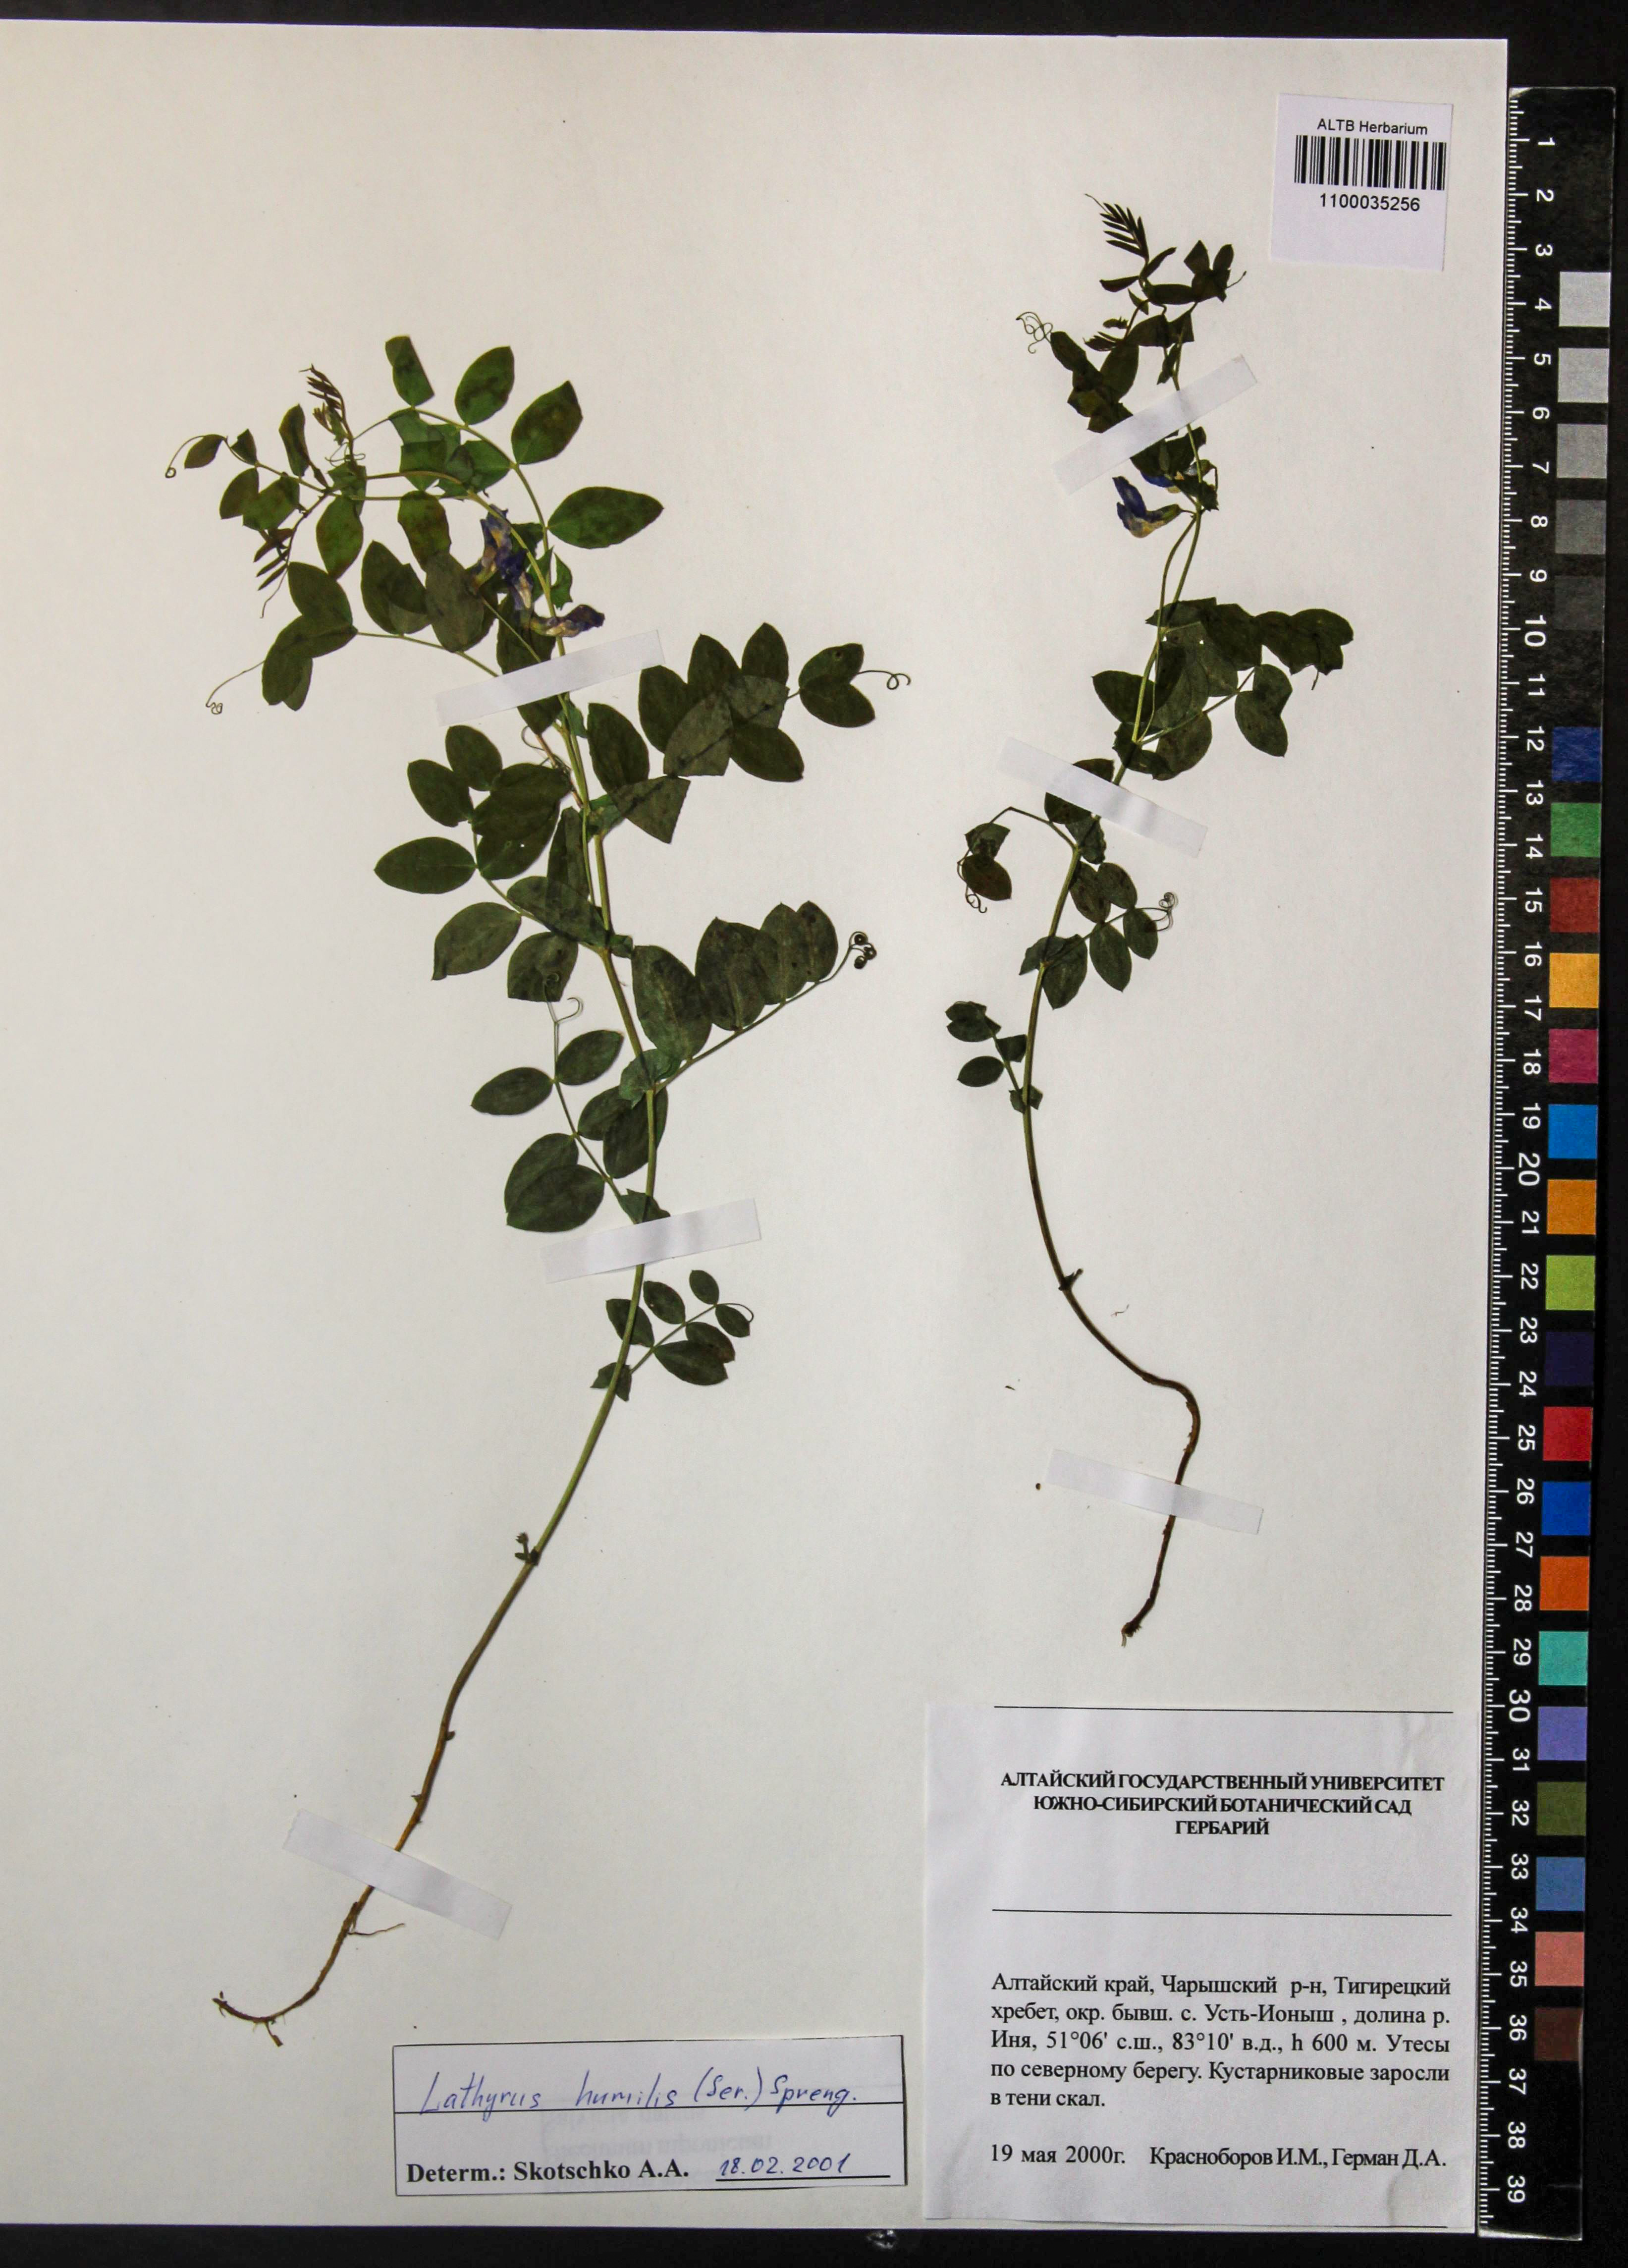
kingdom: Plantae
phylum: Tracheophyta
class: Magnoliopsida
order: Fabales
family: Fabaceae
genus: Lathyrus
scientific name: Lathyrus humilis
